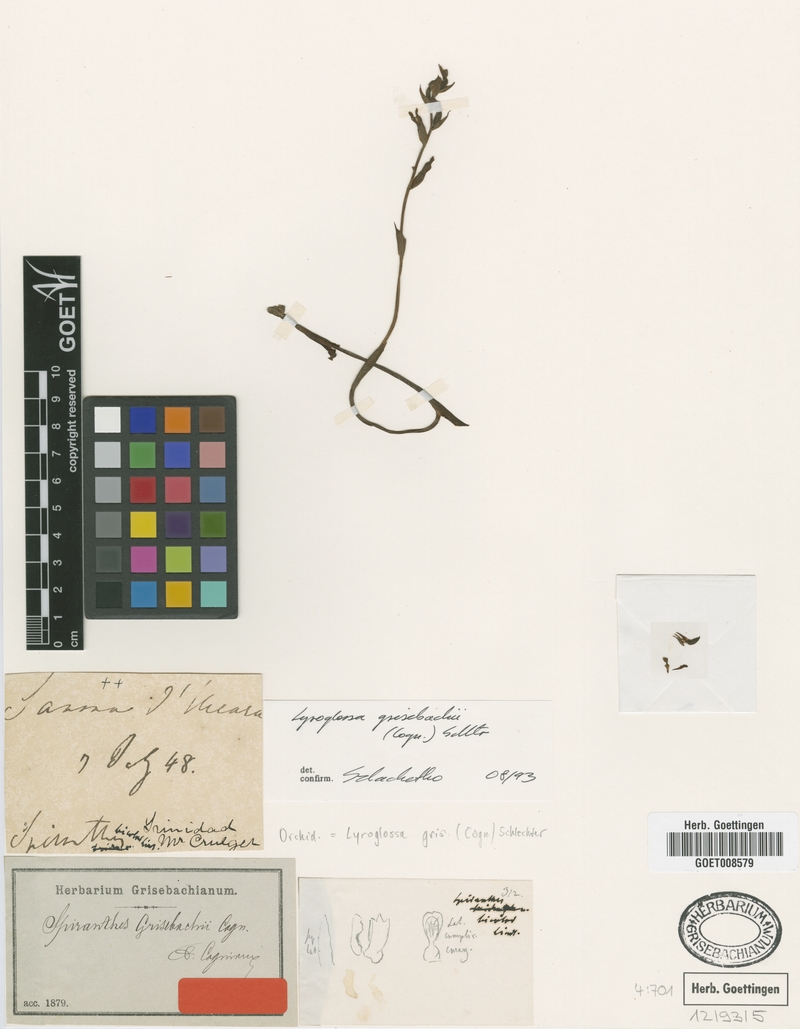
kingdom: Plantae
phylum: Tracheophyta
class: Liliopsida
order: Asparagales
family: Orchidaceae
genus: Lyroglossa
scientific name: Lyroglossa grisebachii
